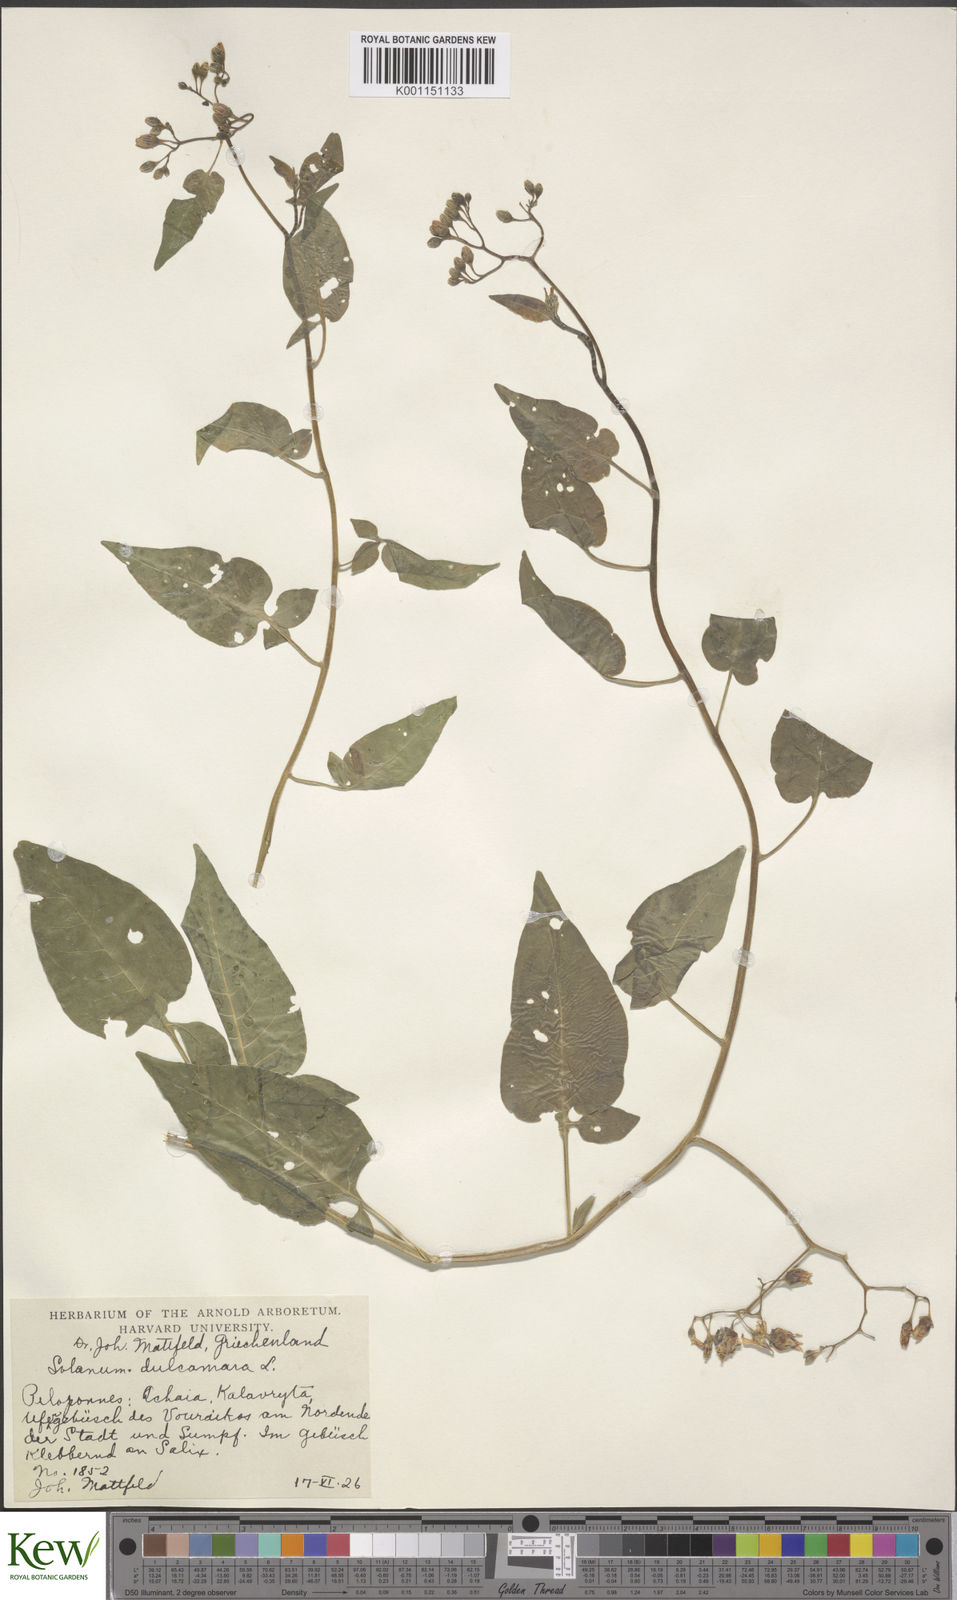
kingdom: Plantae
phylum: Tracheophyta
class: Magnoliopsida
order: Solanales
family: Solanaceae
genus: Solanum
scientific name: Solanum dulcamara
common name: Climbing nightshade
